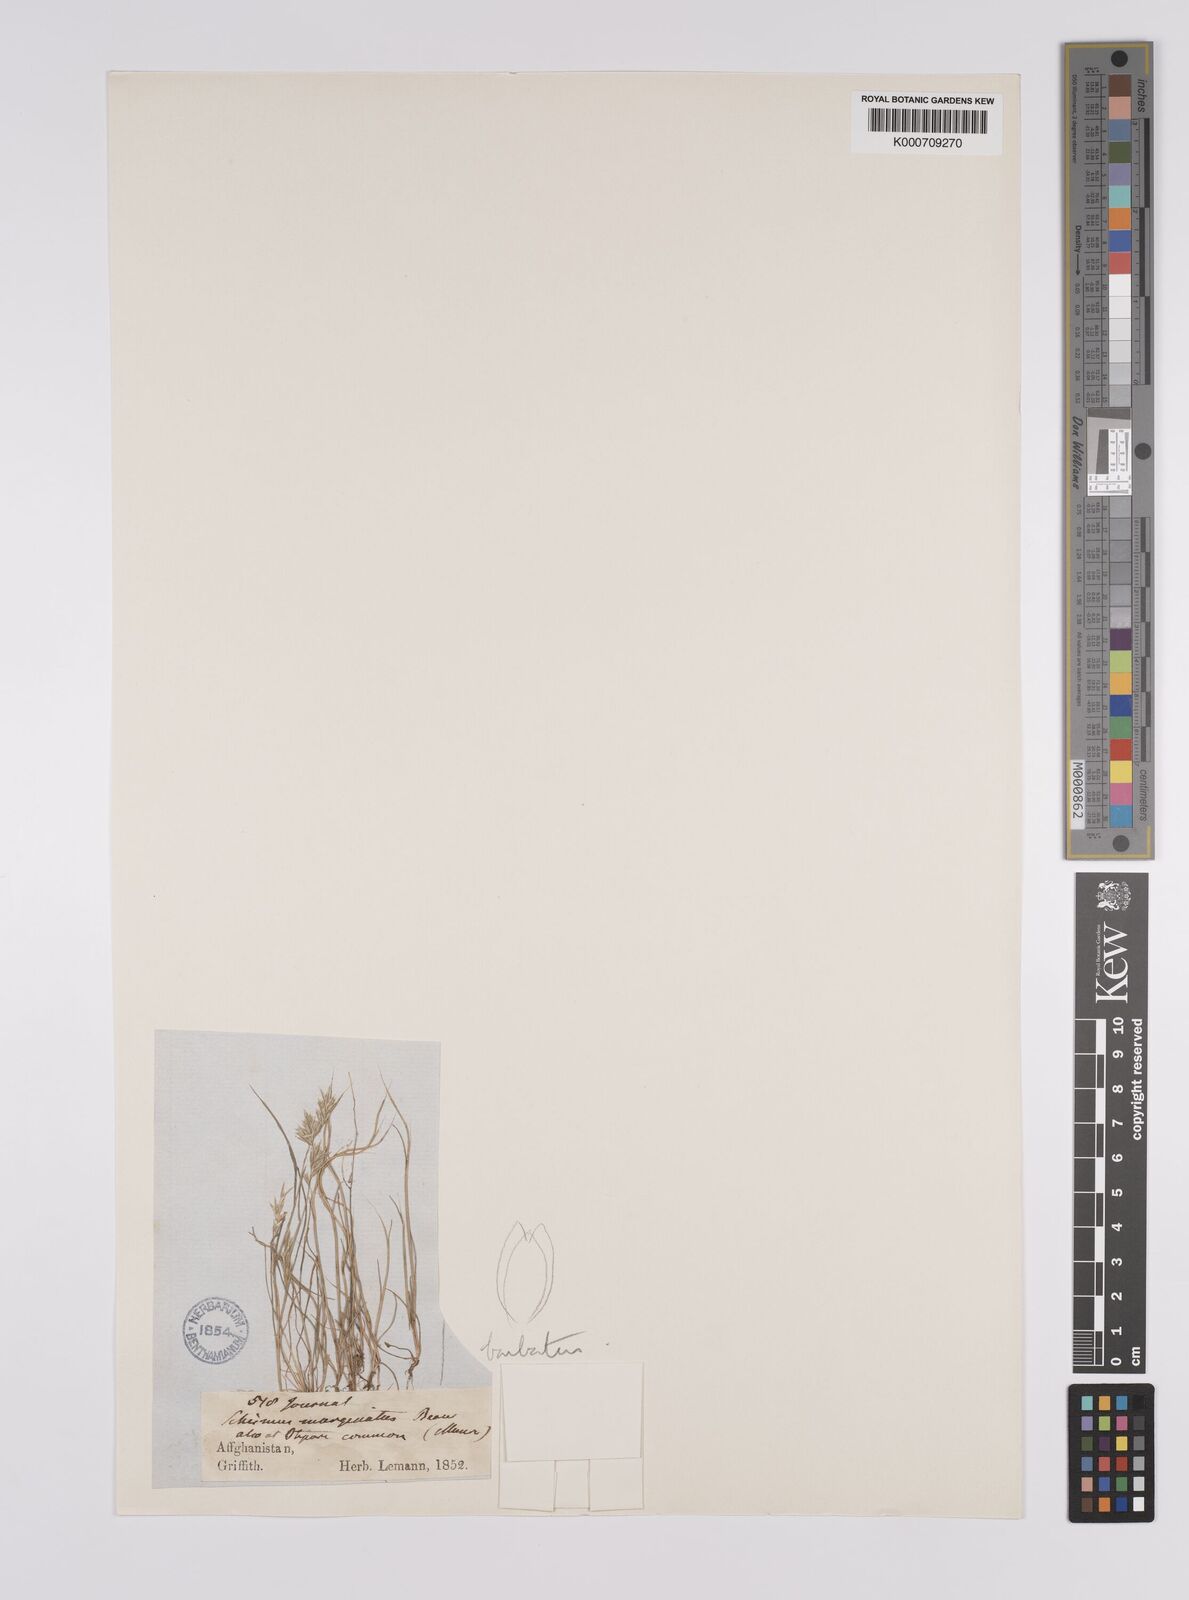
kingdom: Plantae
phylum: Tracheophyta
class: Liliopsida
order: Poales
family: Poaceae
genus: Schismus
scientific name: Schismus barbatus
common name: Kelch-grass
